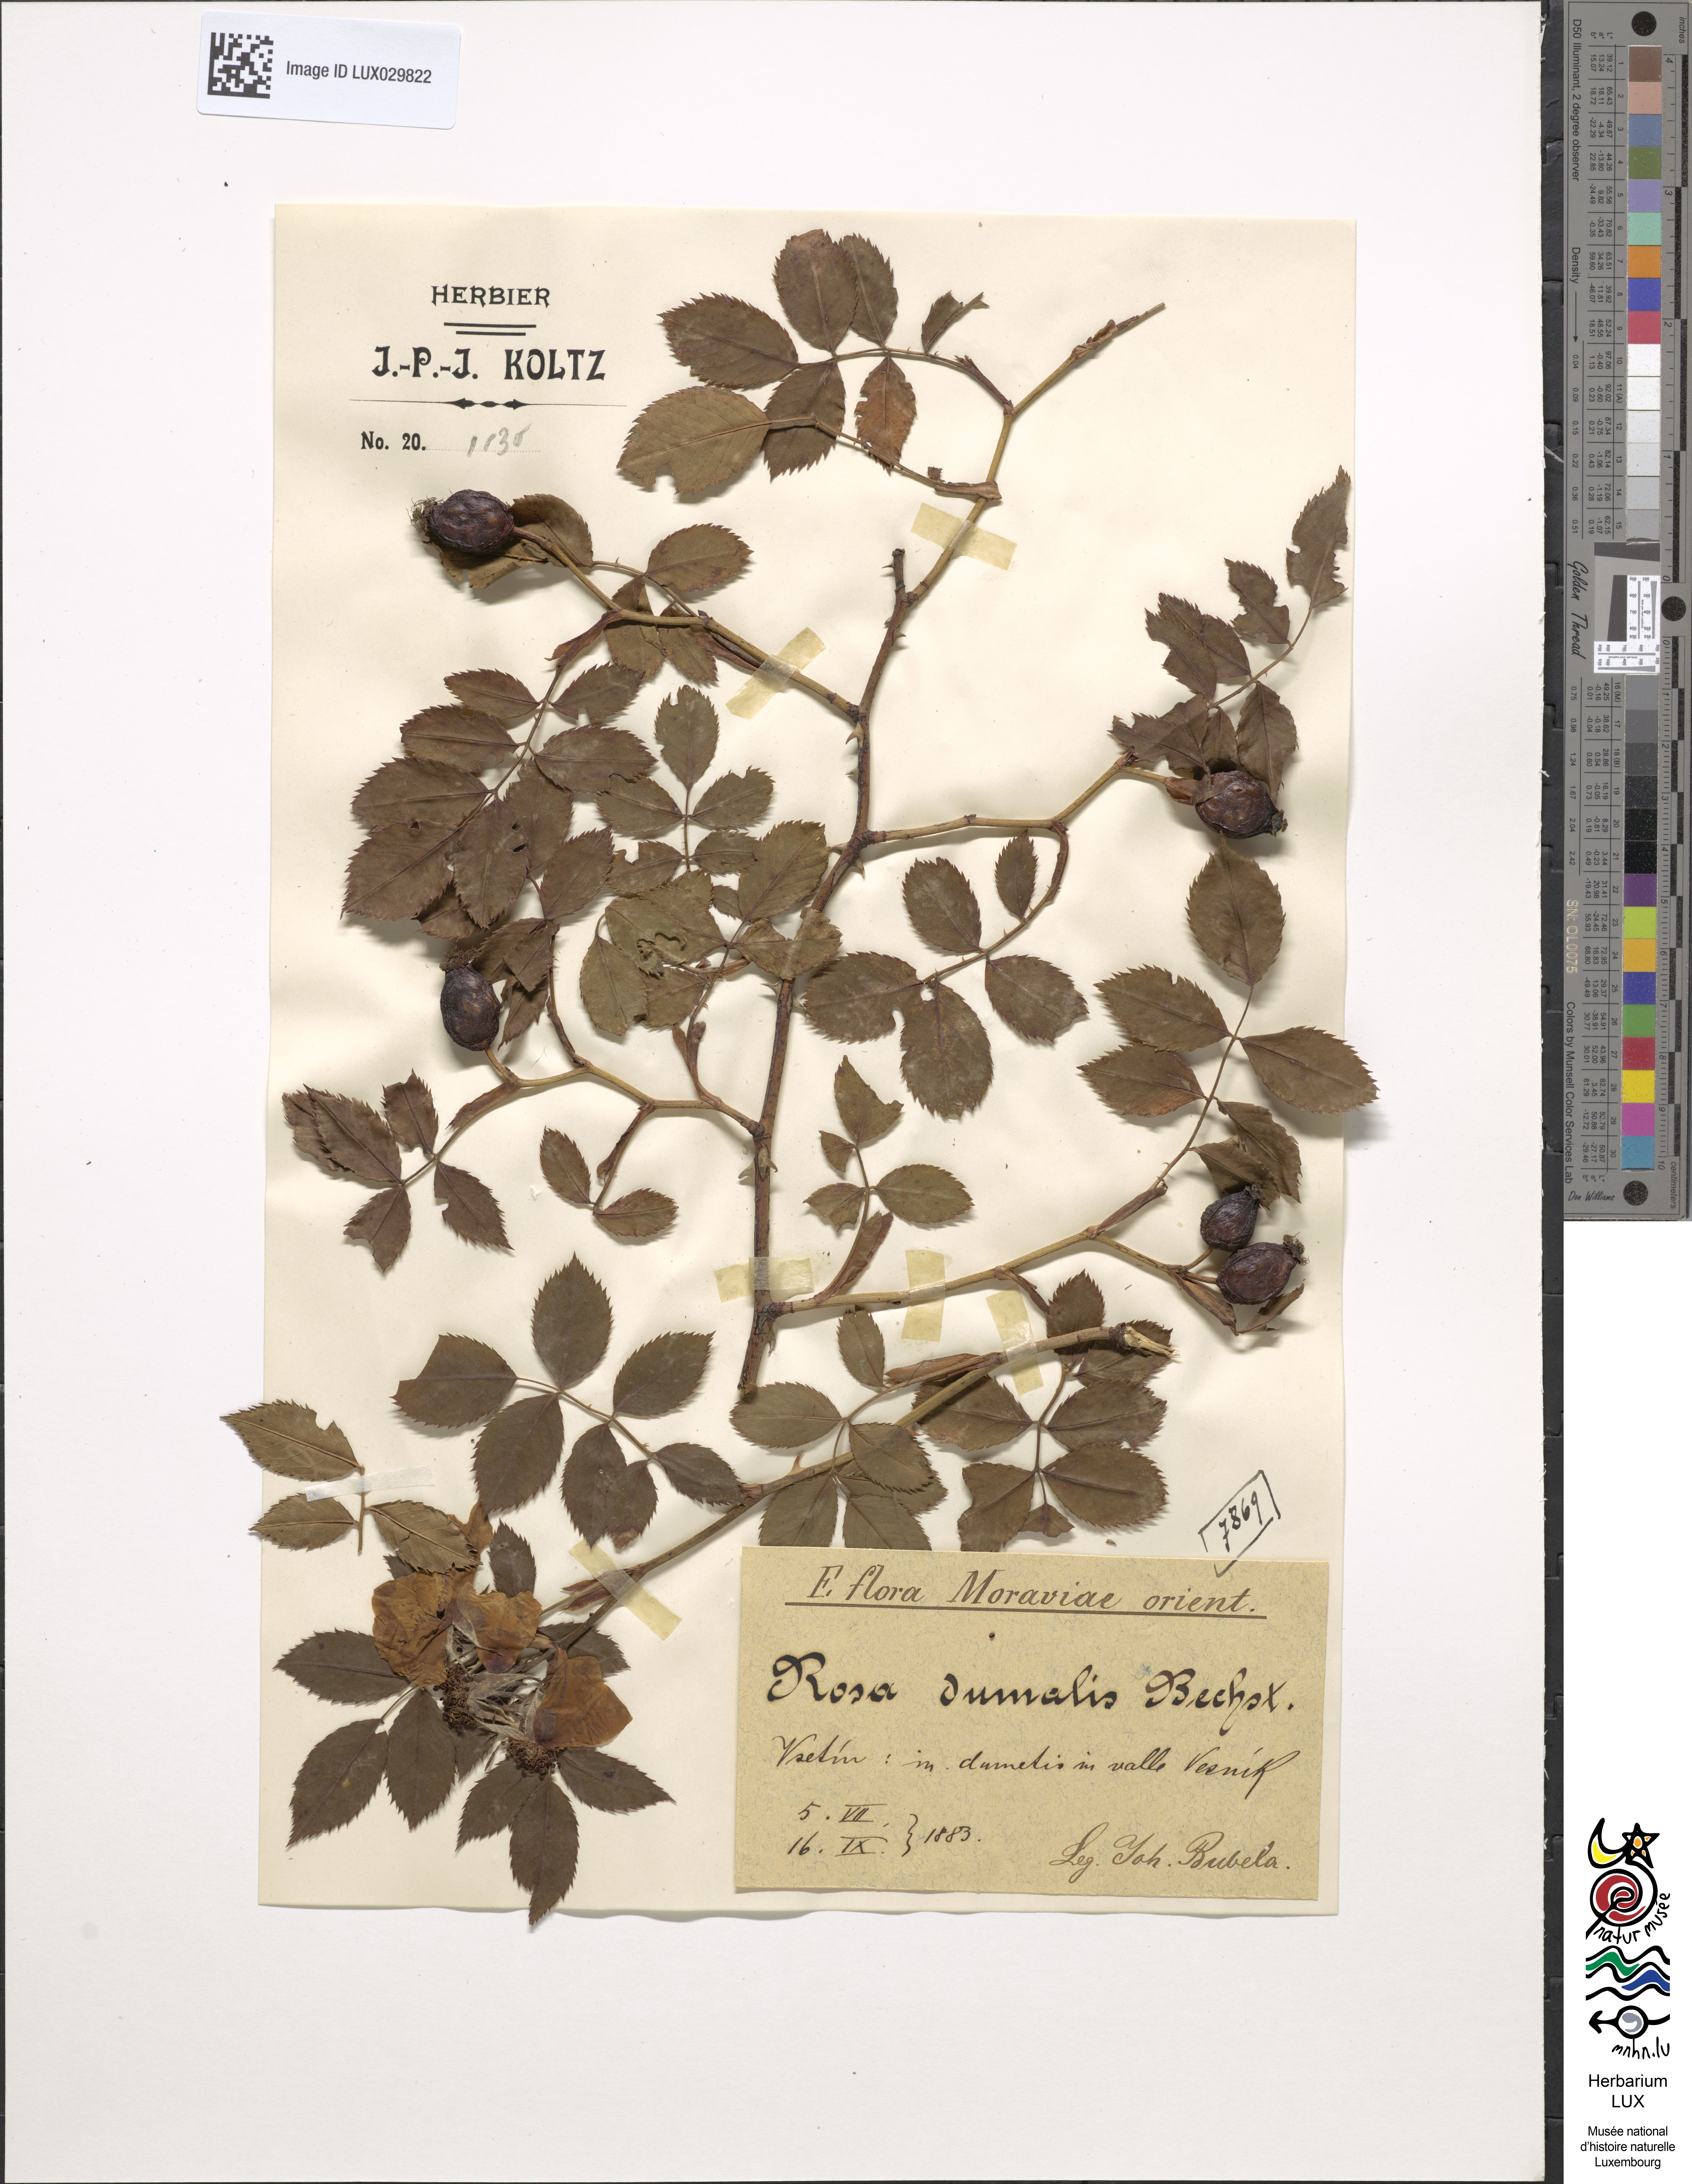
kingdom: Plantae
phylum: Tracheophyta
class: Magnoliopsida
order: Rosales
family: Rosaceae
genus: Rosa
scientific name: Rosa dumalis
